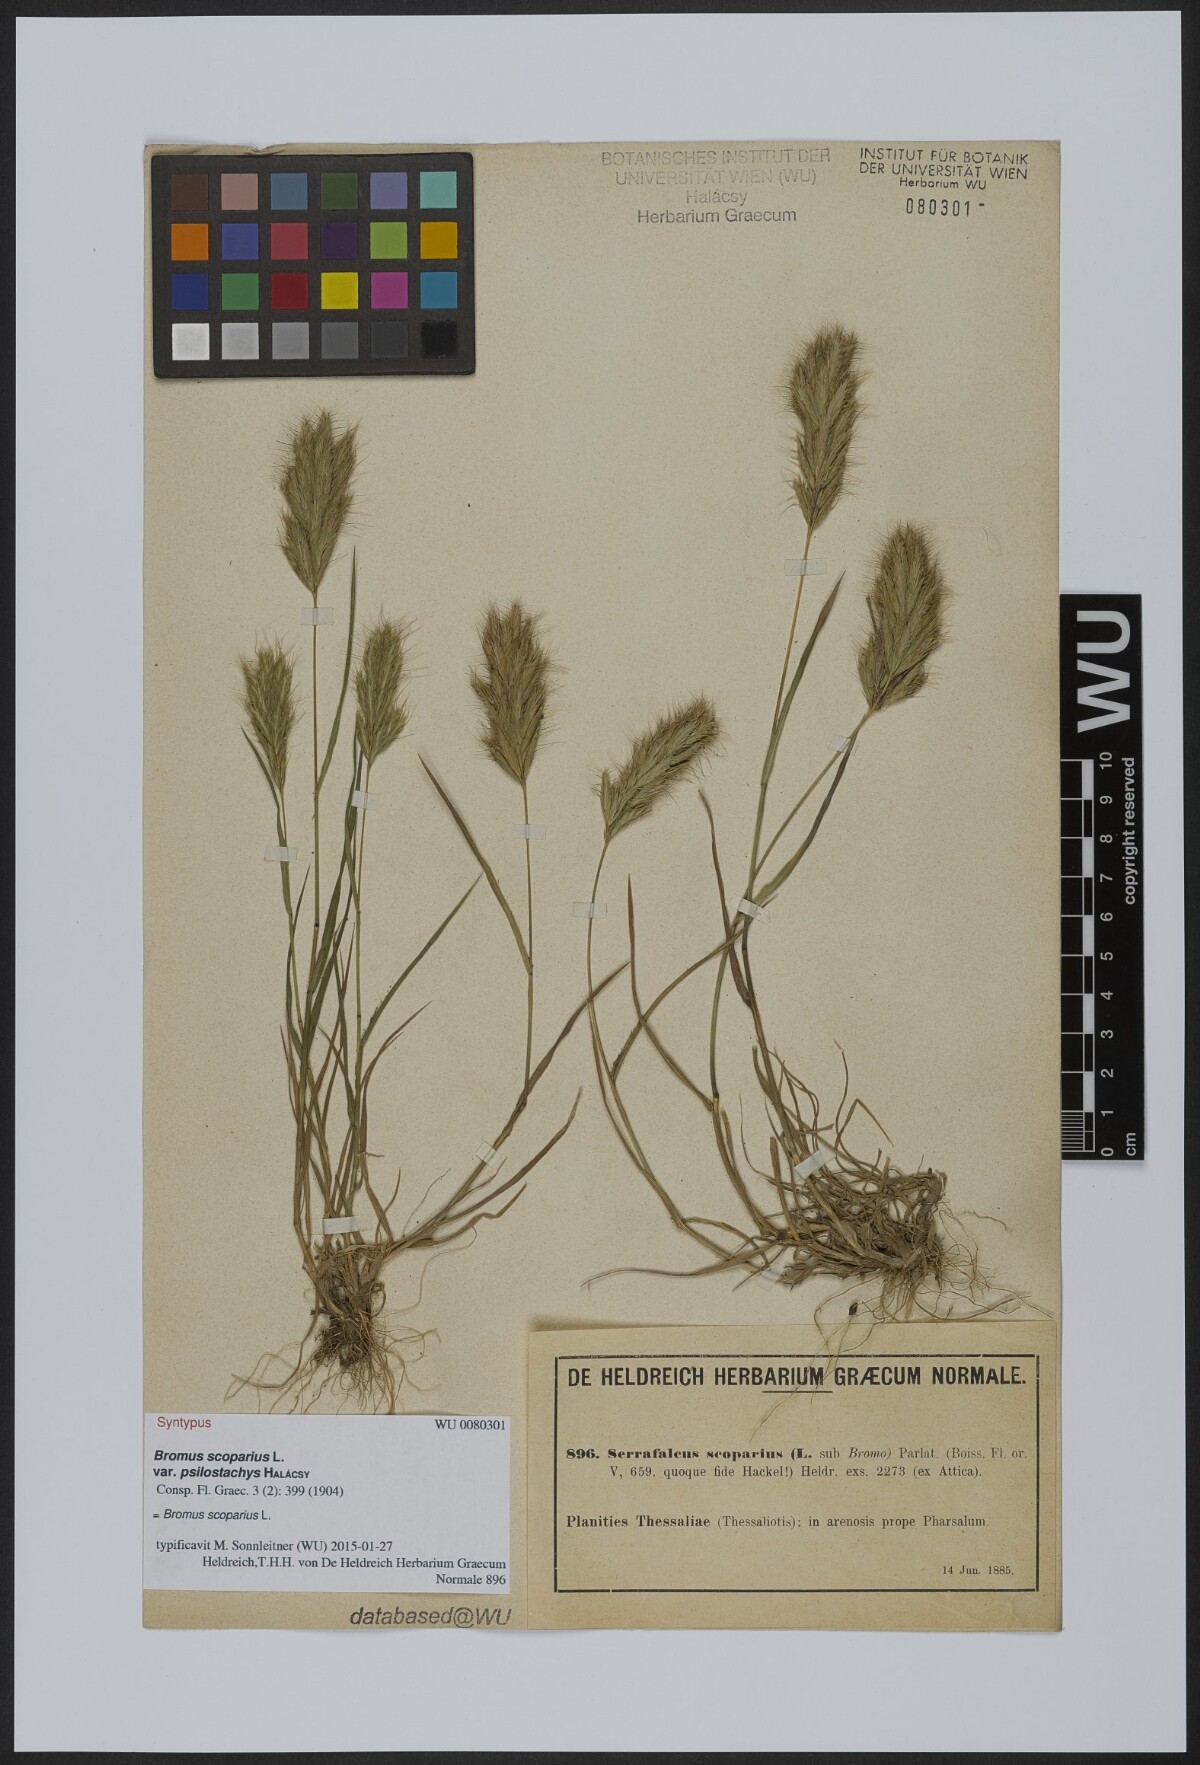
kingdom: Plantae
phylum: Tracheophyta
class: Liliopsida
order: Poales
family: Poaceae
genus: Bromus
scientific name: Bromus scoparius
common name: Broom brome
